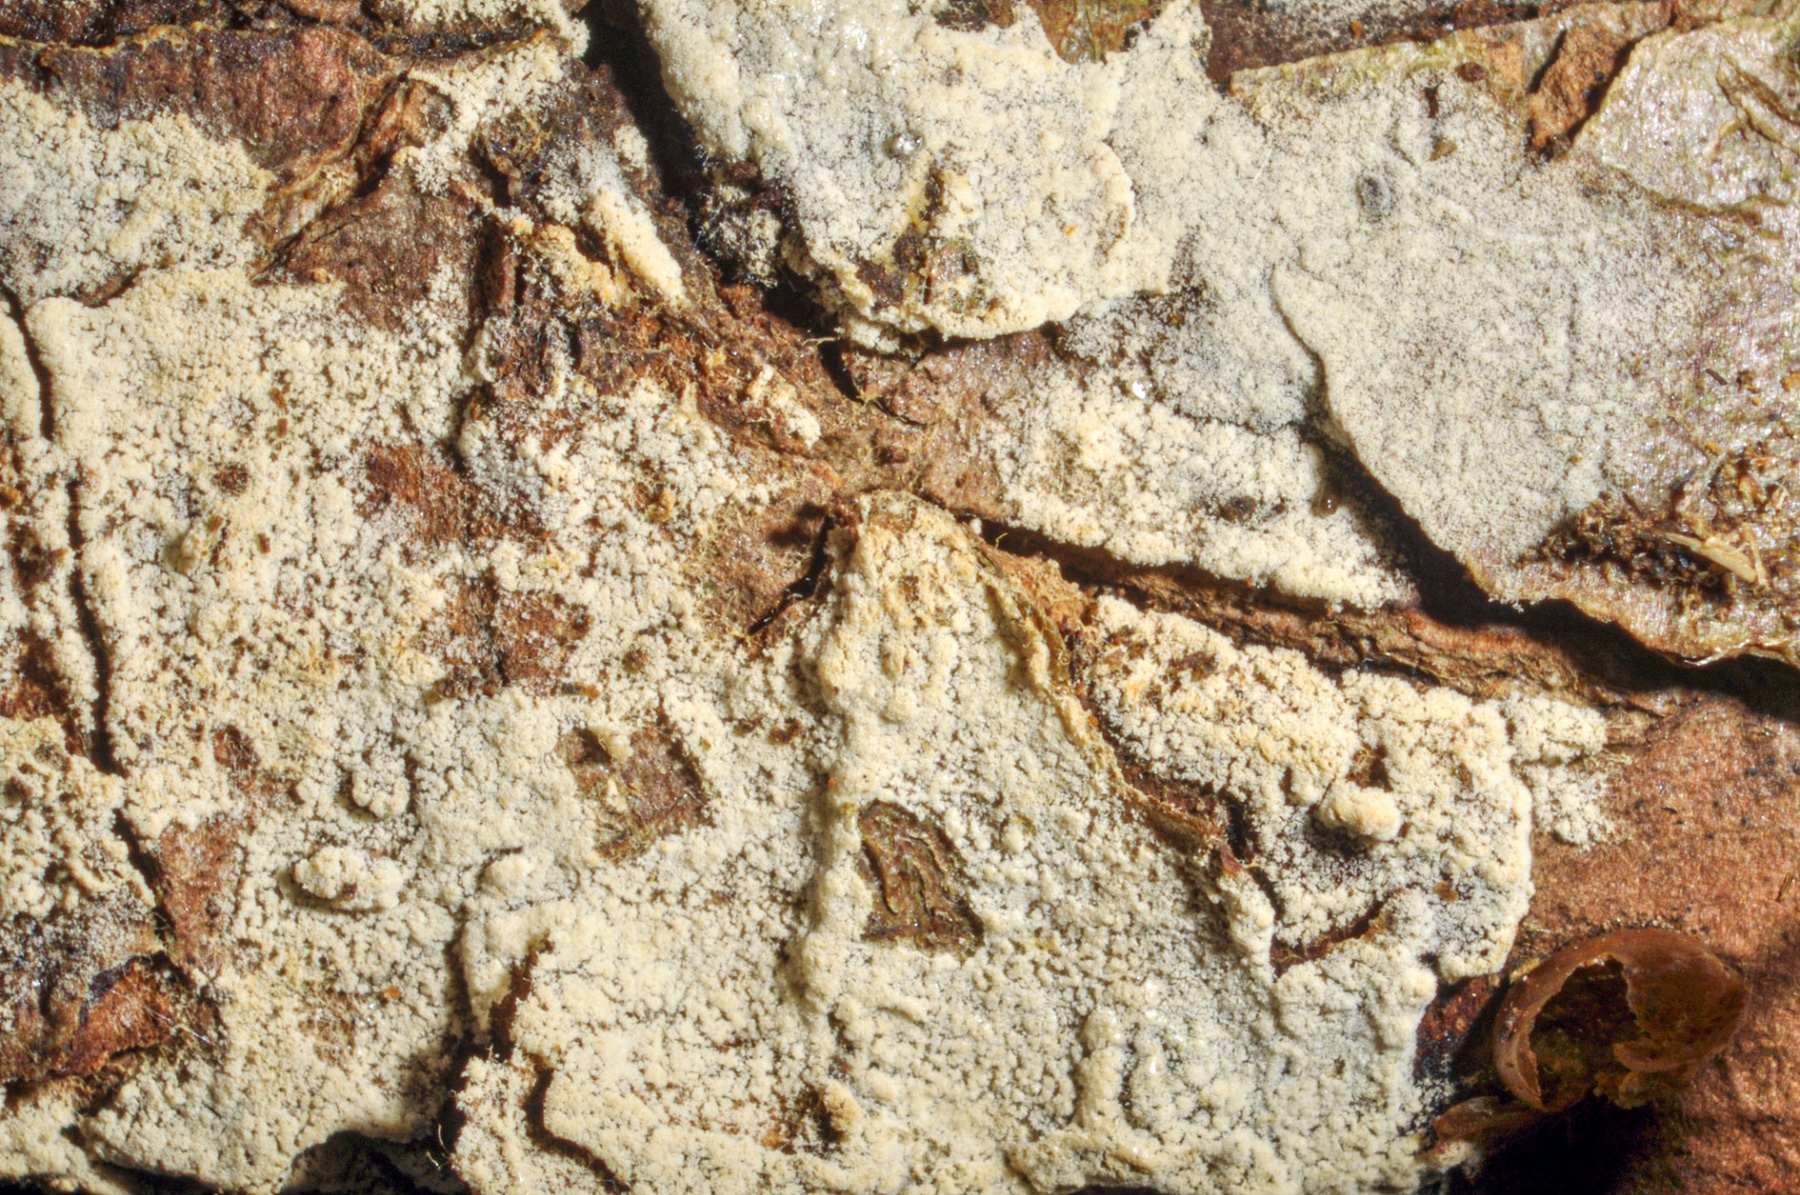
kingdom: Fungi
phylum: Basidiomycota
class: Agaricomycetes
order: Cantharellales
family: Botryobasidiaceae
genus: Botryobasidium
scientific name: Botryobasidium pruinatum
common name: ruhyfet spindhinde
